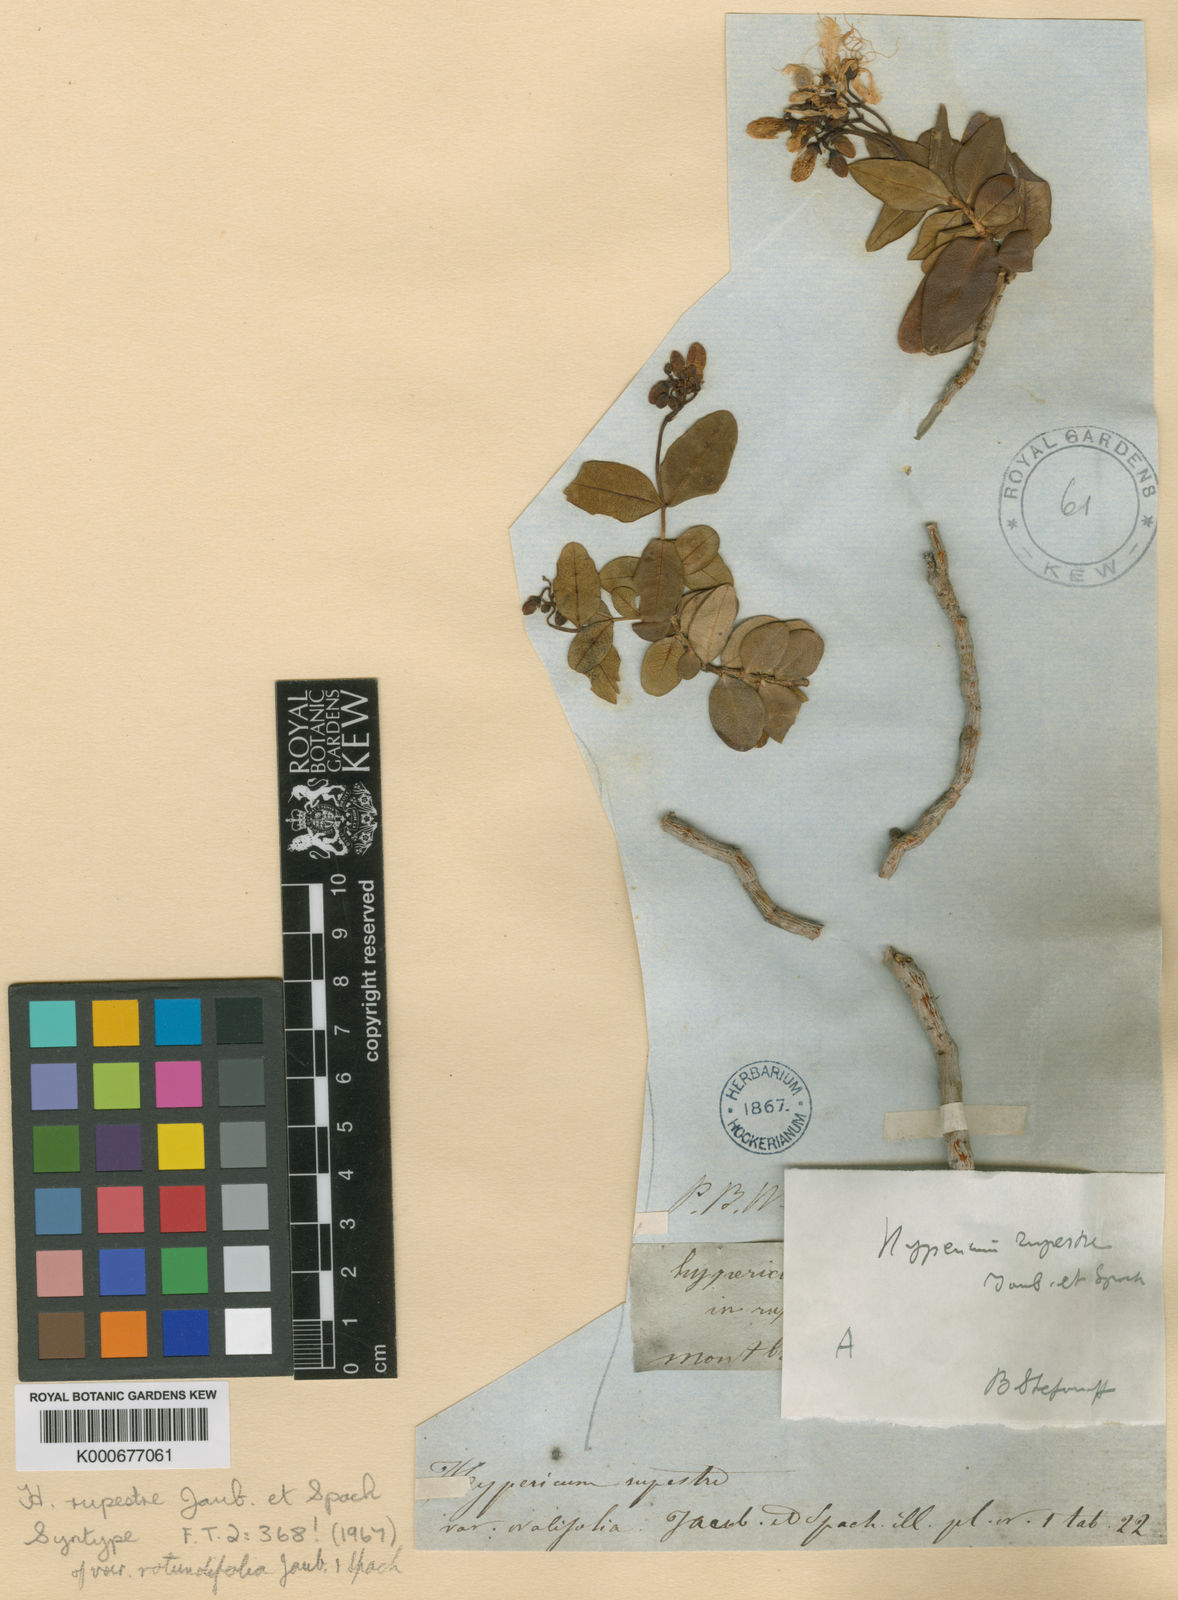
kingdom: Plantae
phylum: Tracheophyta
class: Magnoliopsida
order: Malpighiales
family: Hypericaceae
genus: Hypericum
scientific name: Hypericum
